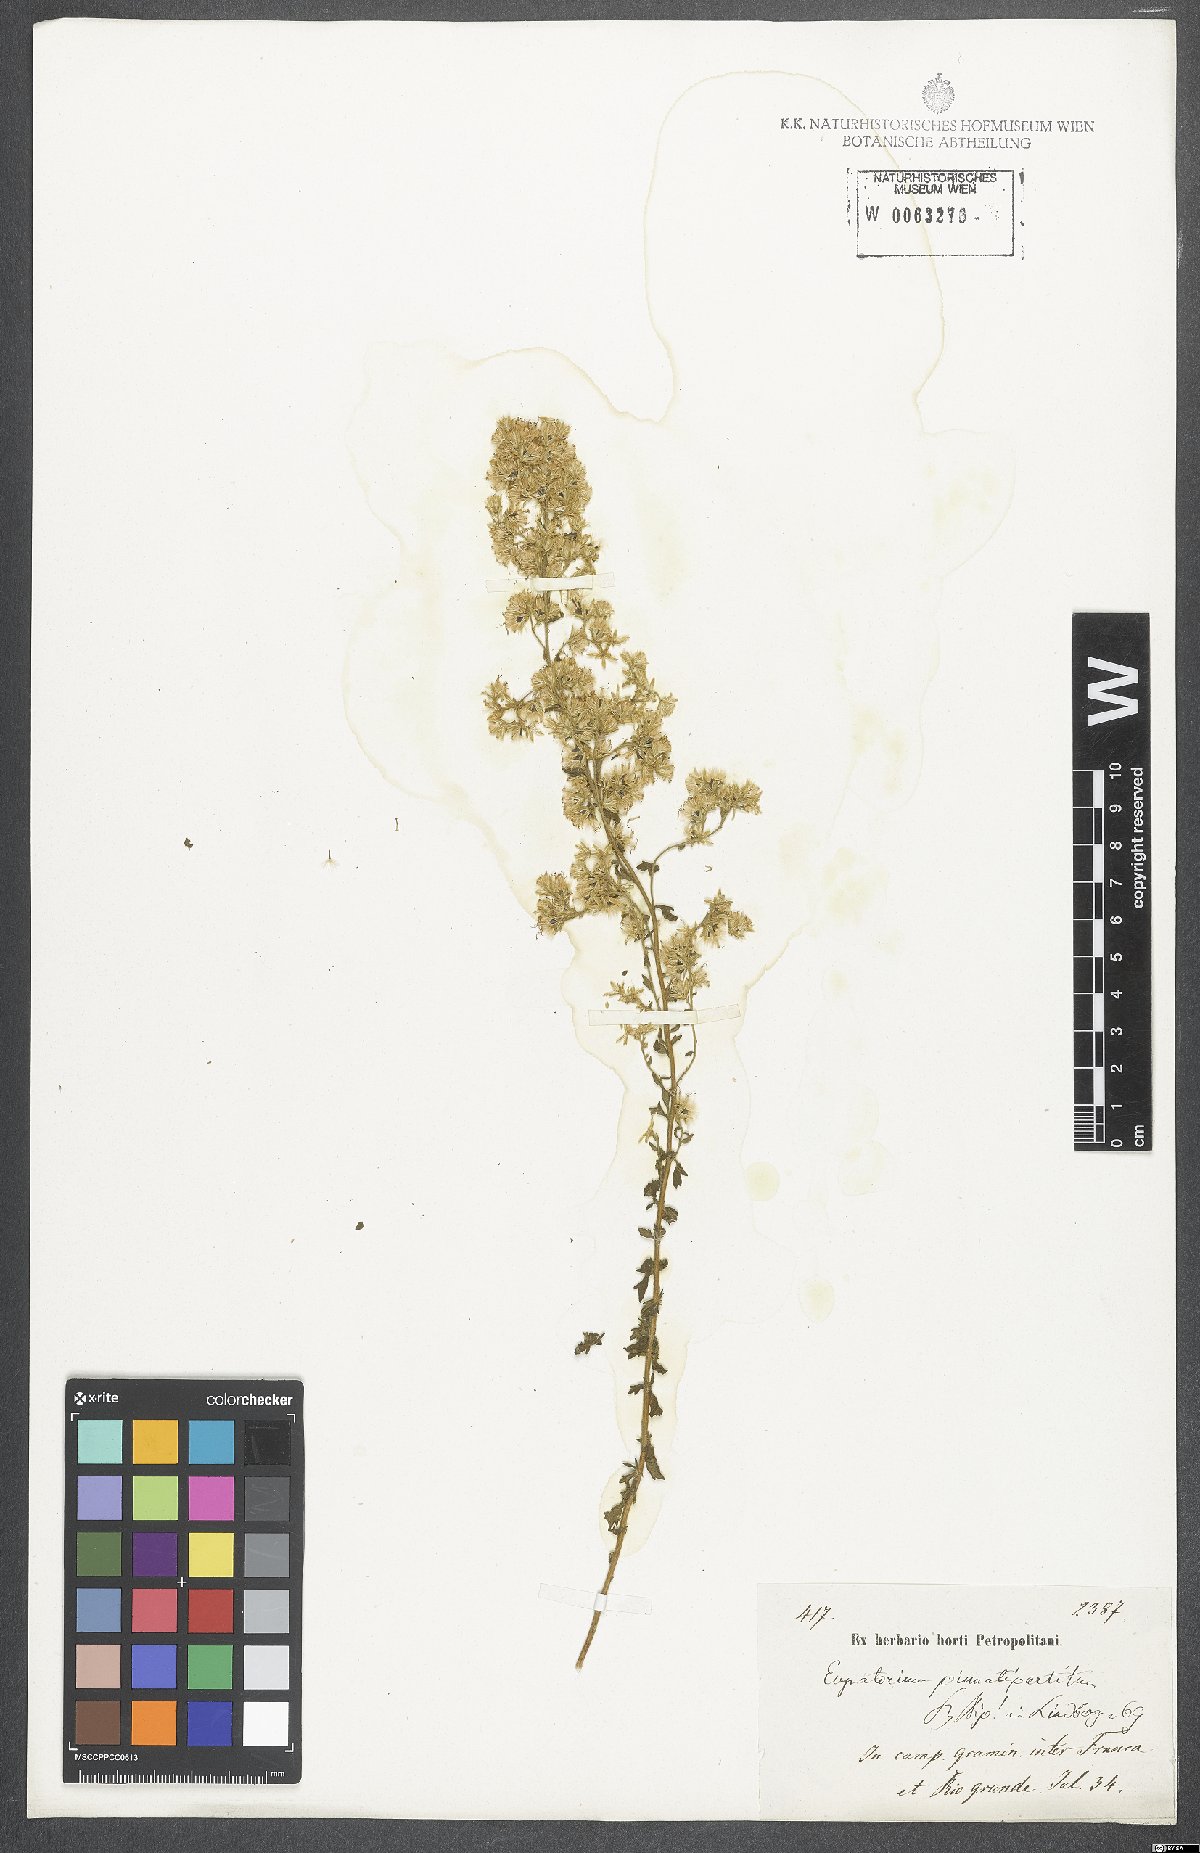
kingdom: Plantae
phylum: Tracheophyta
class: Magnoliopsida
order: Asterales
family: Asteraceae
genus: Stomatanthes
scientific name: Stomatanthes pinnatipartitus
